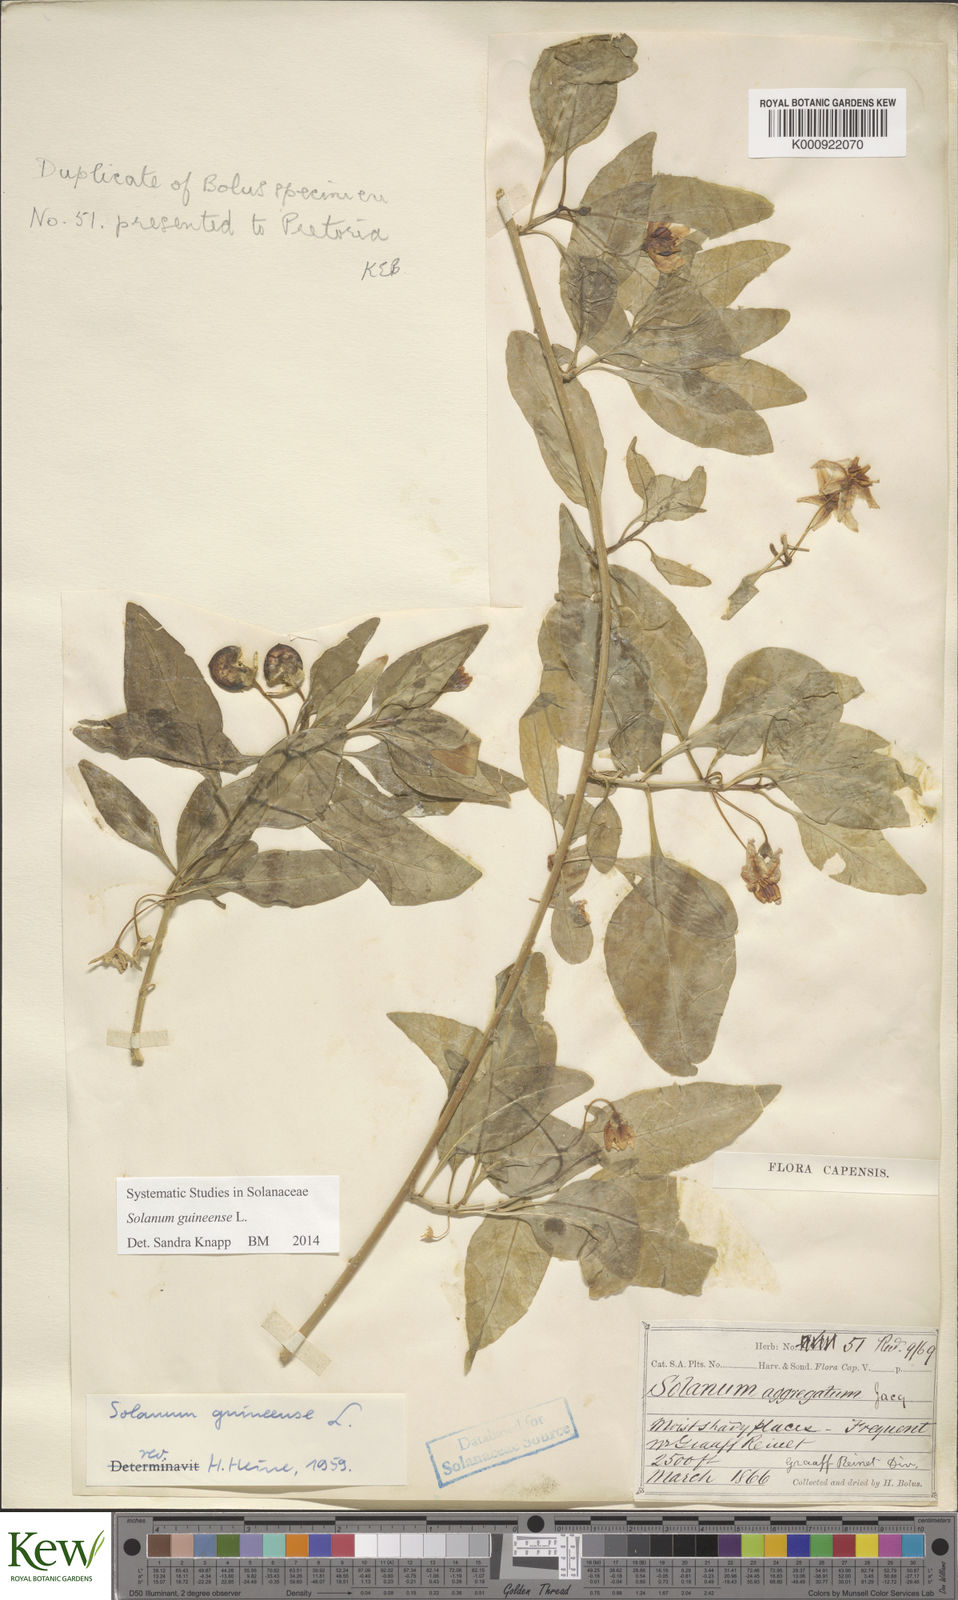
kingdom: Plantae
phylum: Tracheophyta
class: Magnoliopsida
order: Solanales
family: Solanaceae
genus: Solanum
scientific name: Solanum guineense
